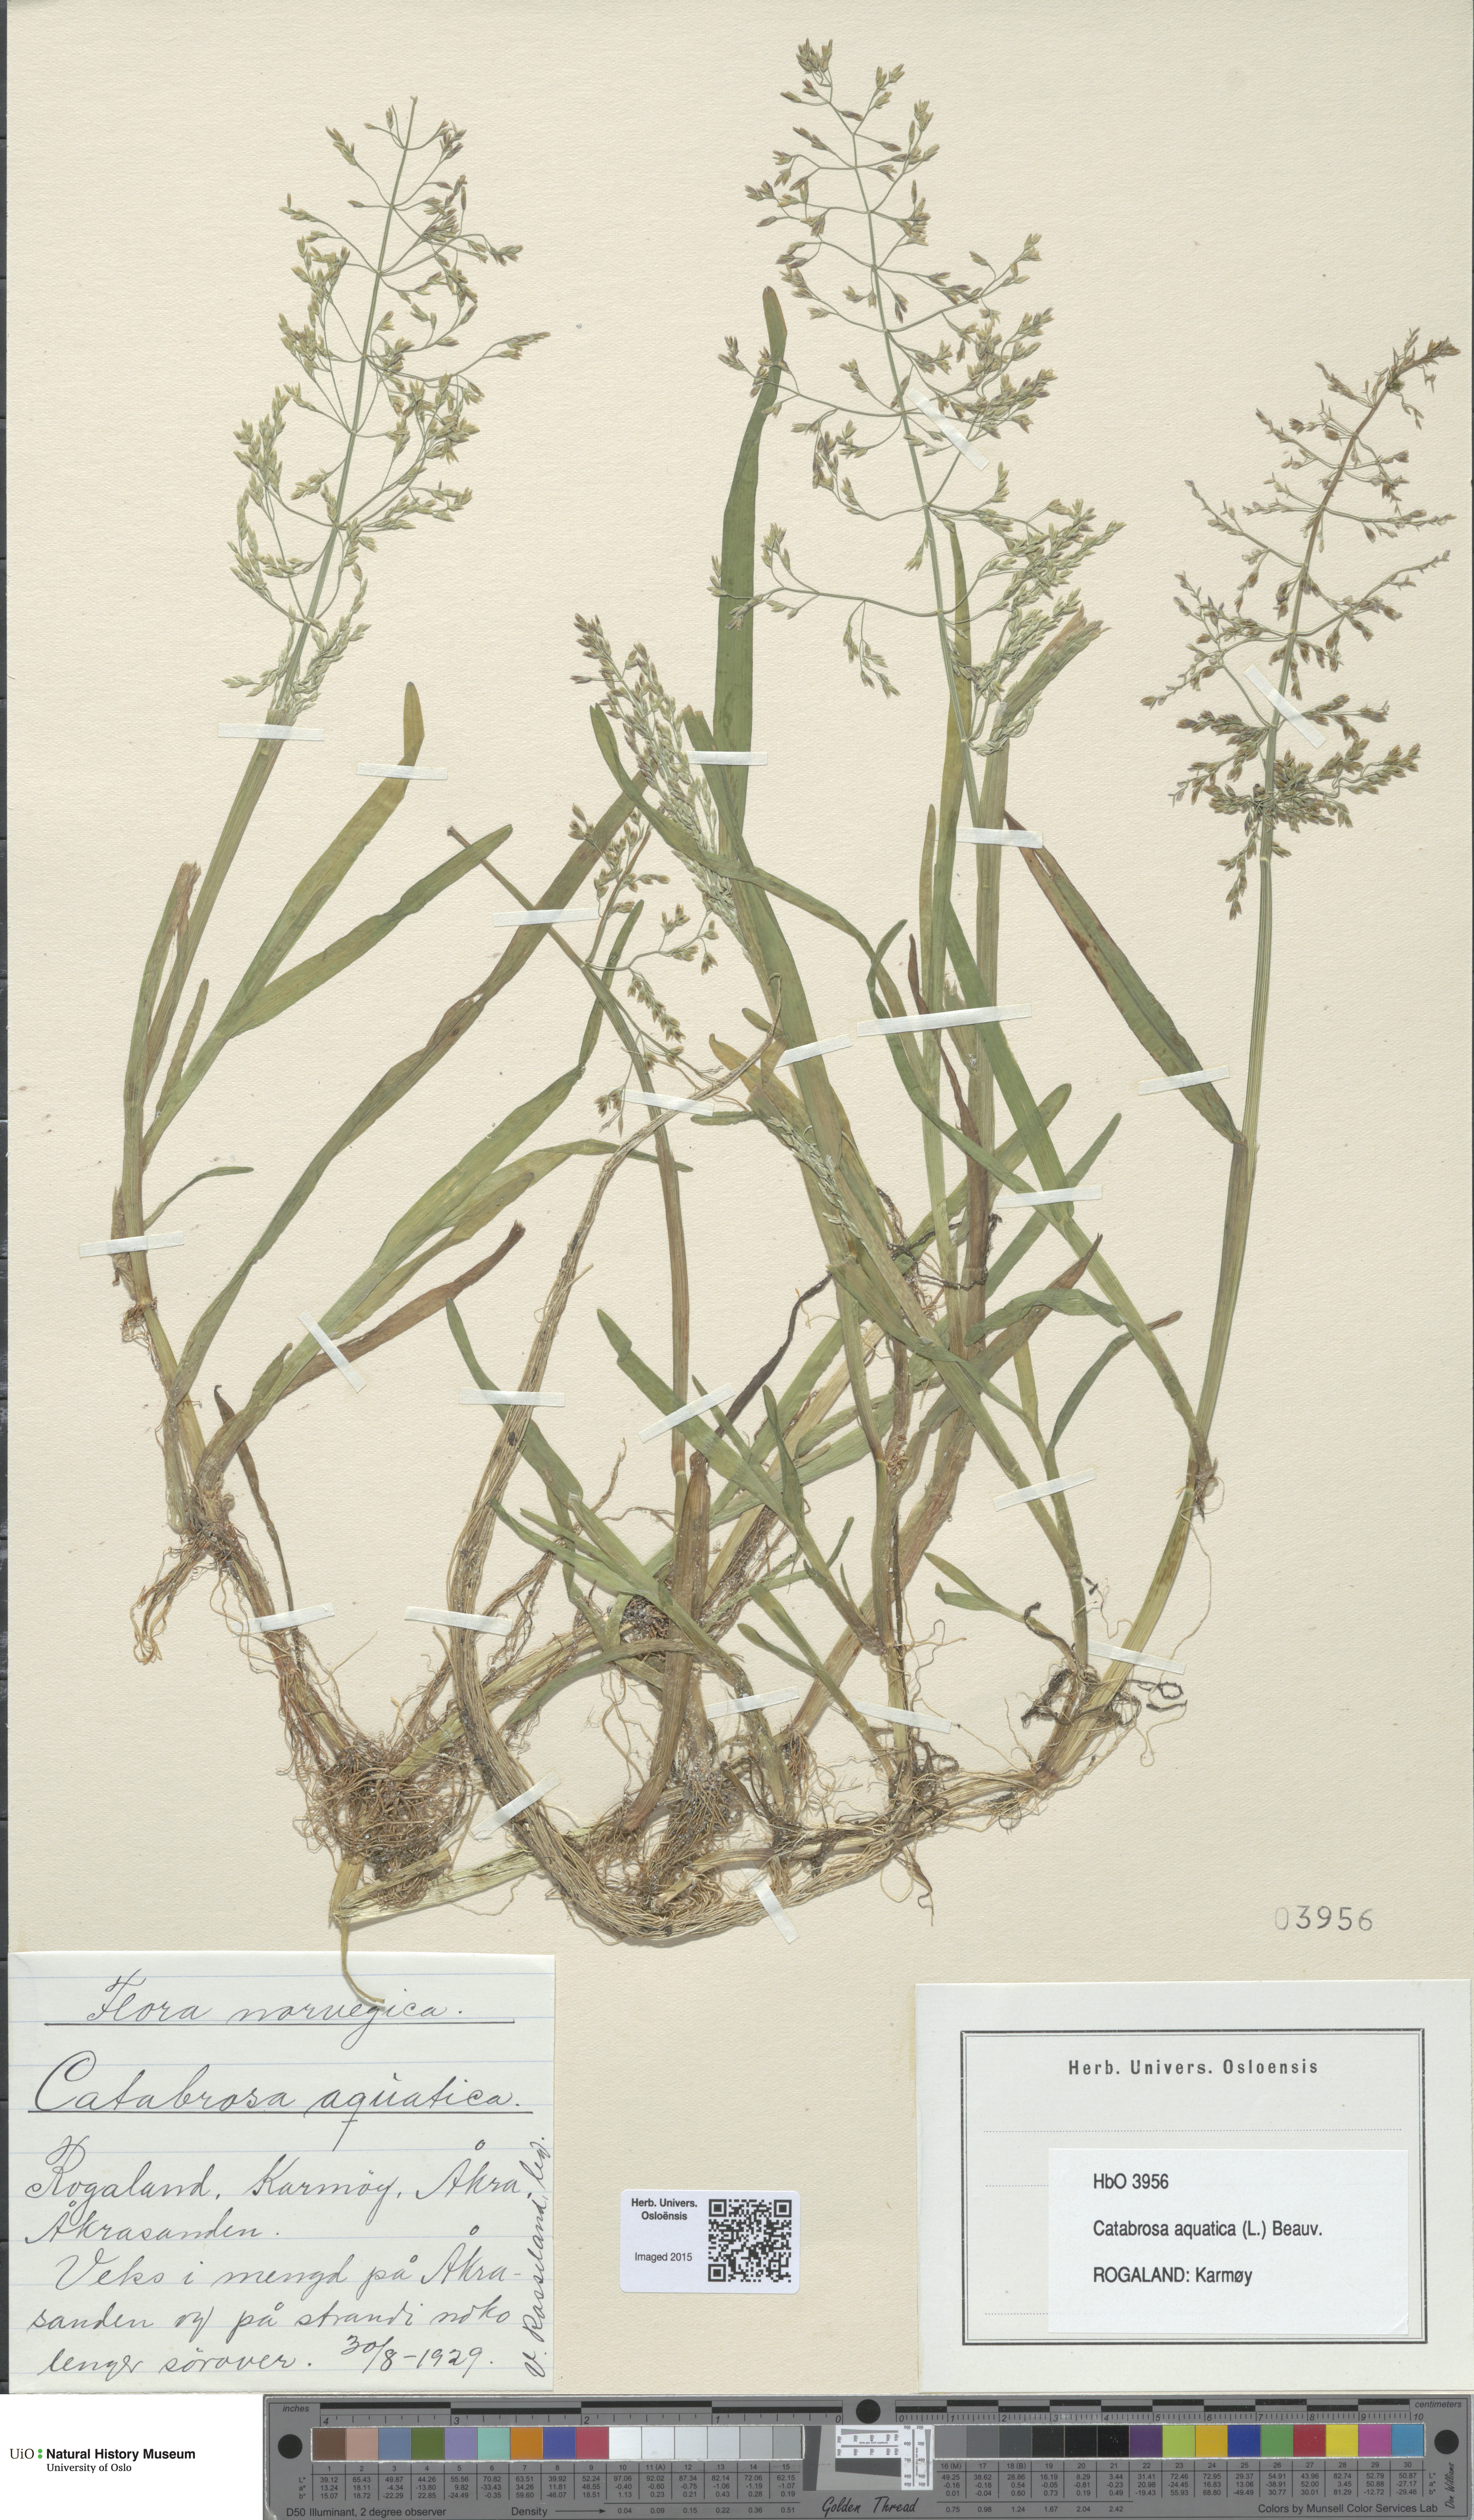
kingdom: Plantae
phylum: Tracheophyta
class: Liliopsida
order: Poales
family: Poaceae
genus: Catabrosa
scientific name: Catabrosa aquatica
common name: Whorl-grass
